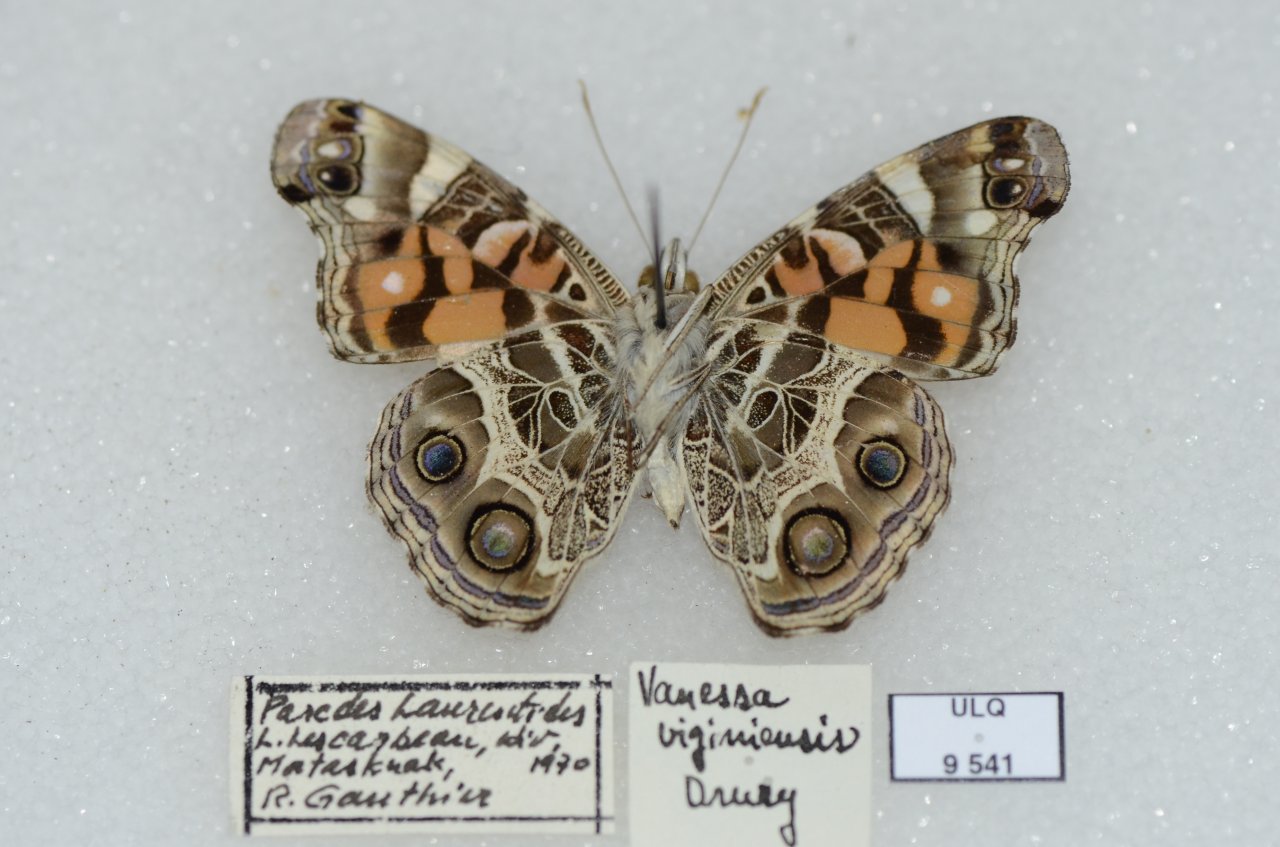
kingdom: Animalia
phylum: Arthropoda
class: Insecta
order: Lepidoptera
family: Nymphalidae
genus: Vanessa
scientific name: Vanessa virginiensis
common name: American Lady
